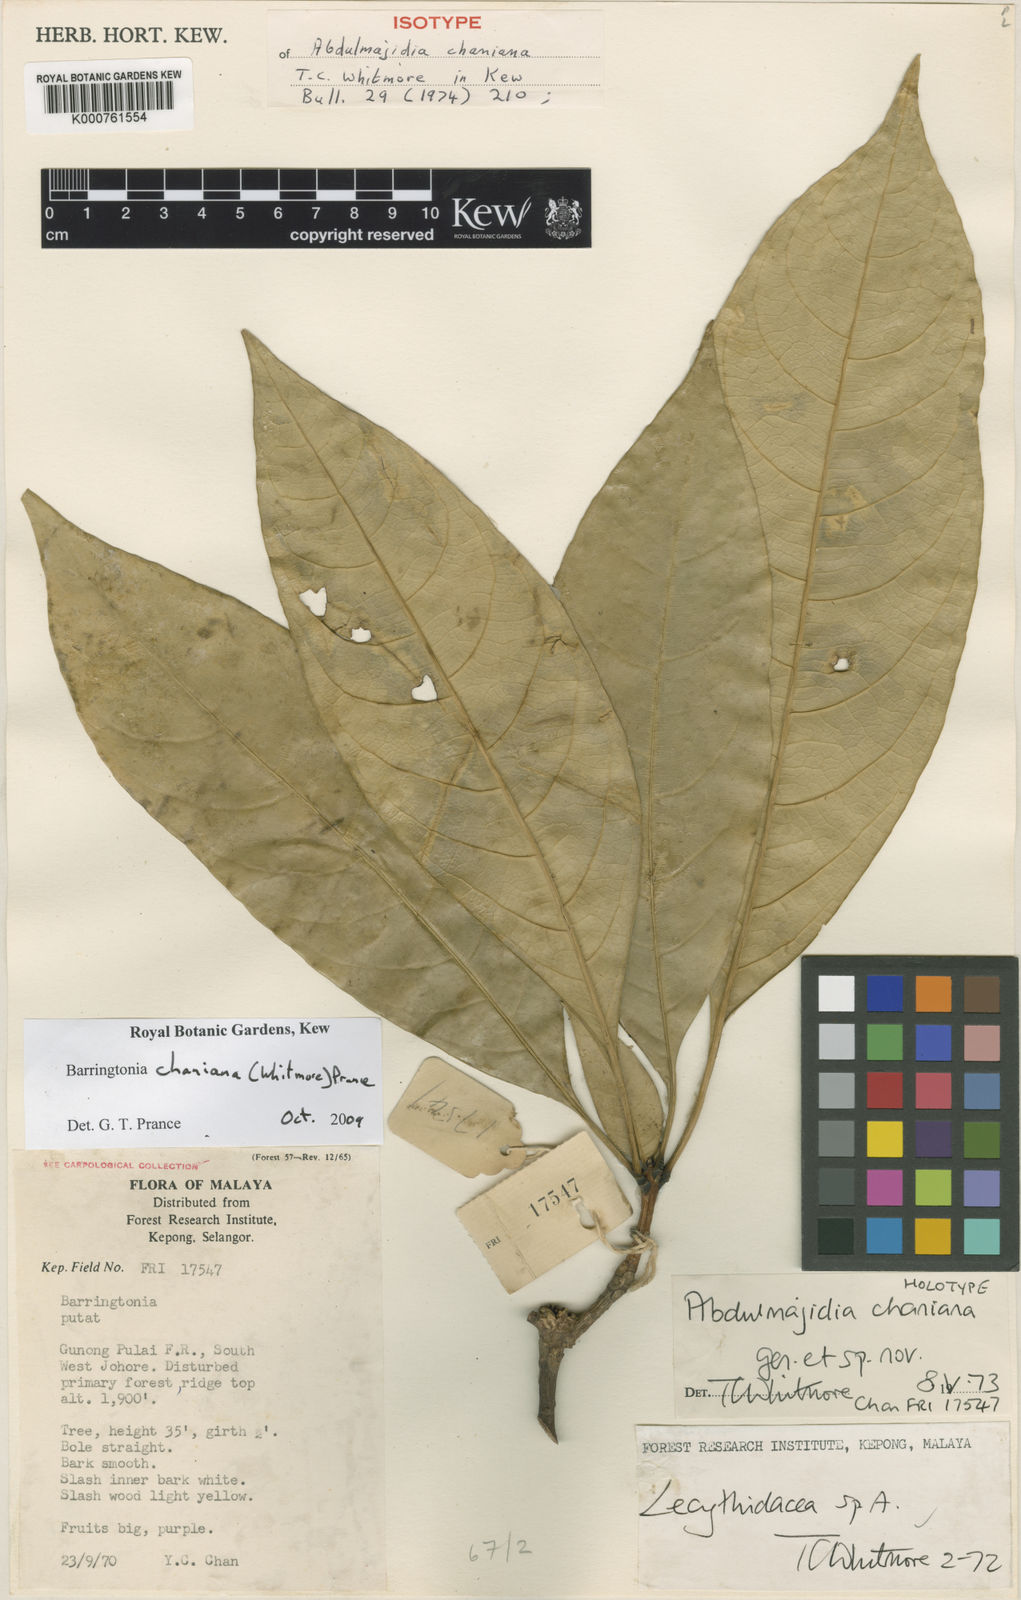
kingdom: Plantae
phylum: Tracheophyta
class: Magnoliopsida
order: Ericales
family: Lecythidaceae
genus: Barringtonia
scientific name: Barringtonia chaniana
